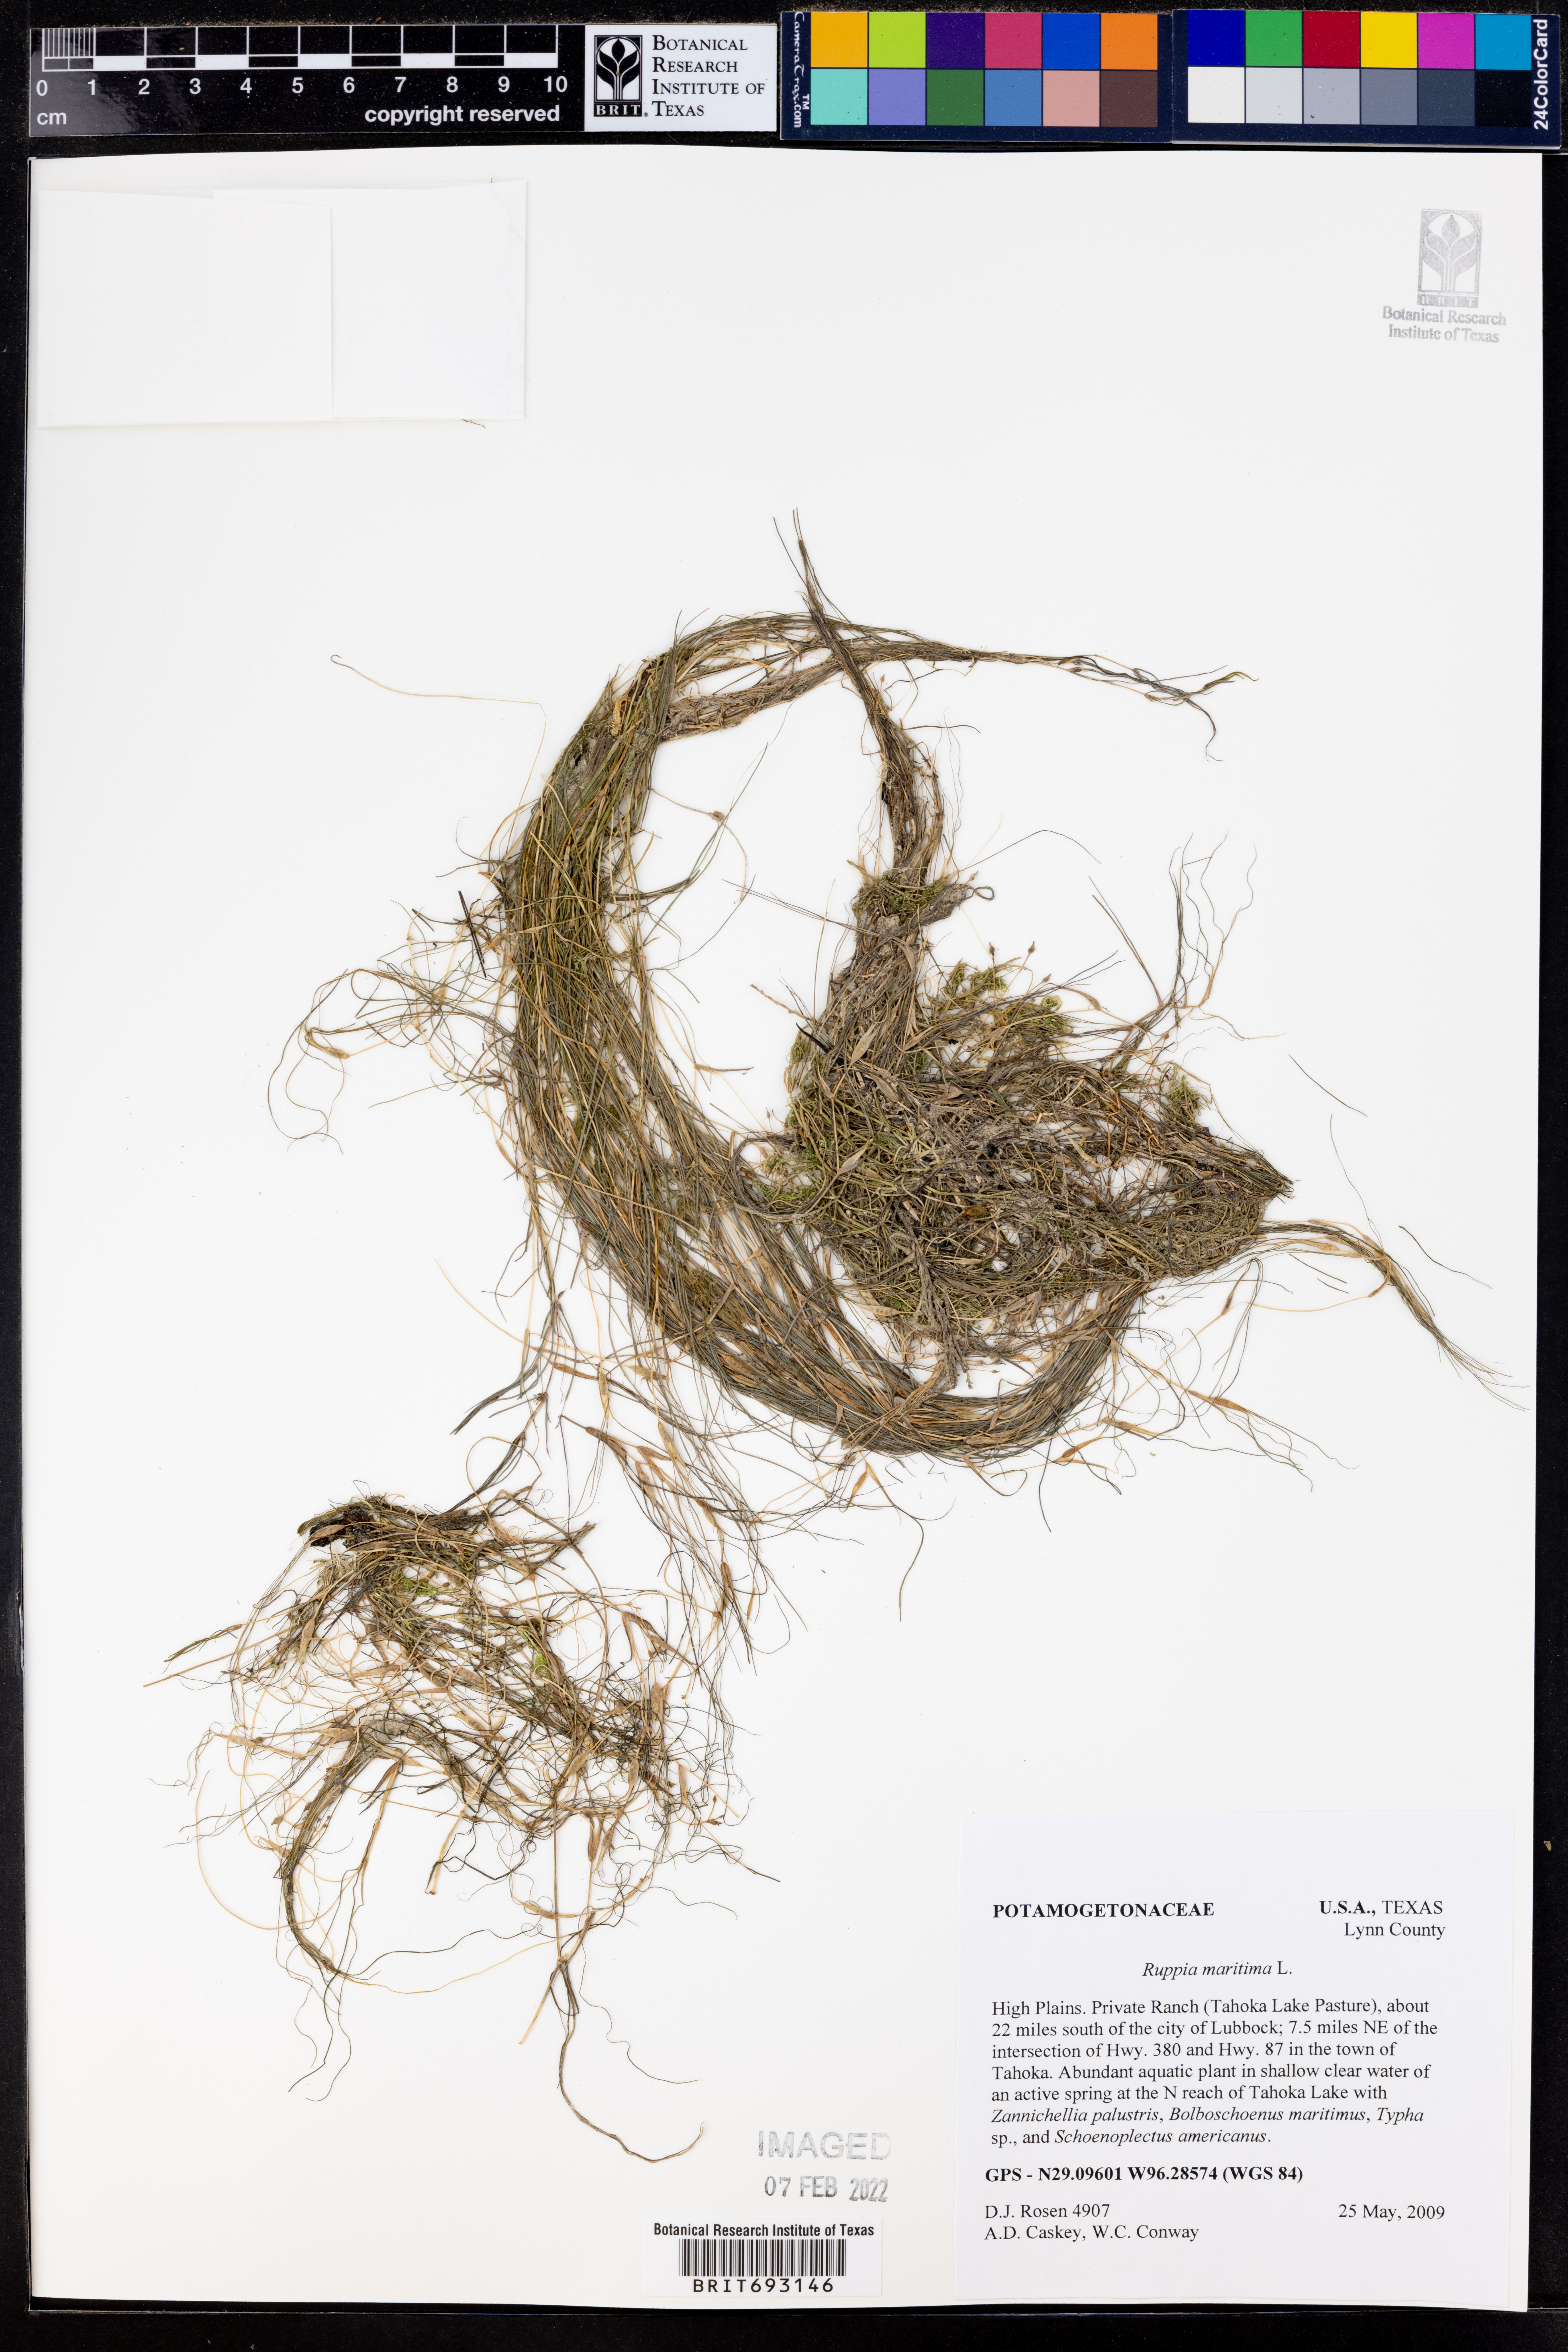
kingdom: Plantae
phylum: Tracheophyta
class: Liliopsida
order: Alismatales
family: Ruppiaceae
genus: Ruppia
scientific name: Ruppia maritima
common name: Beaked tasselweed
